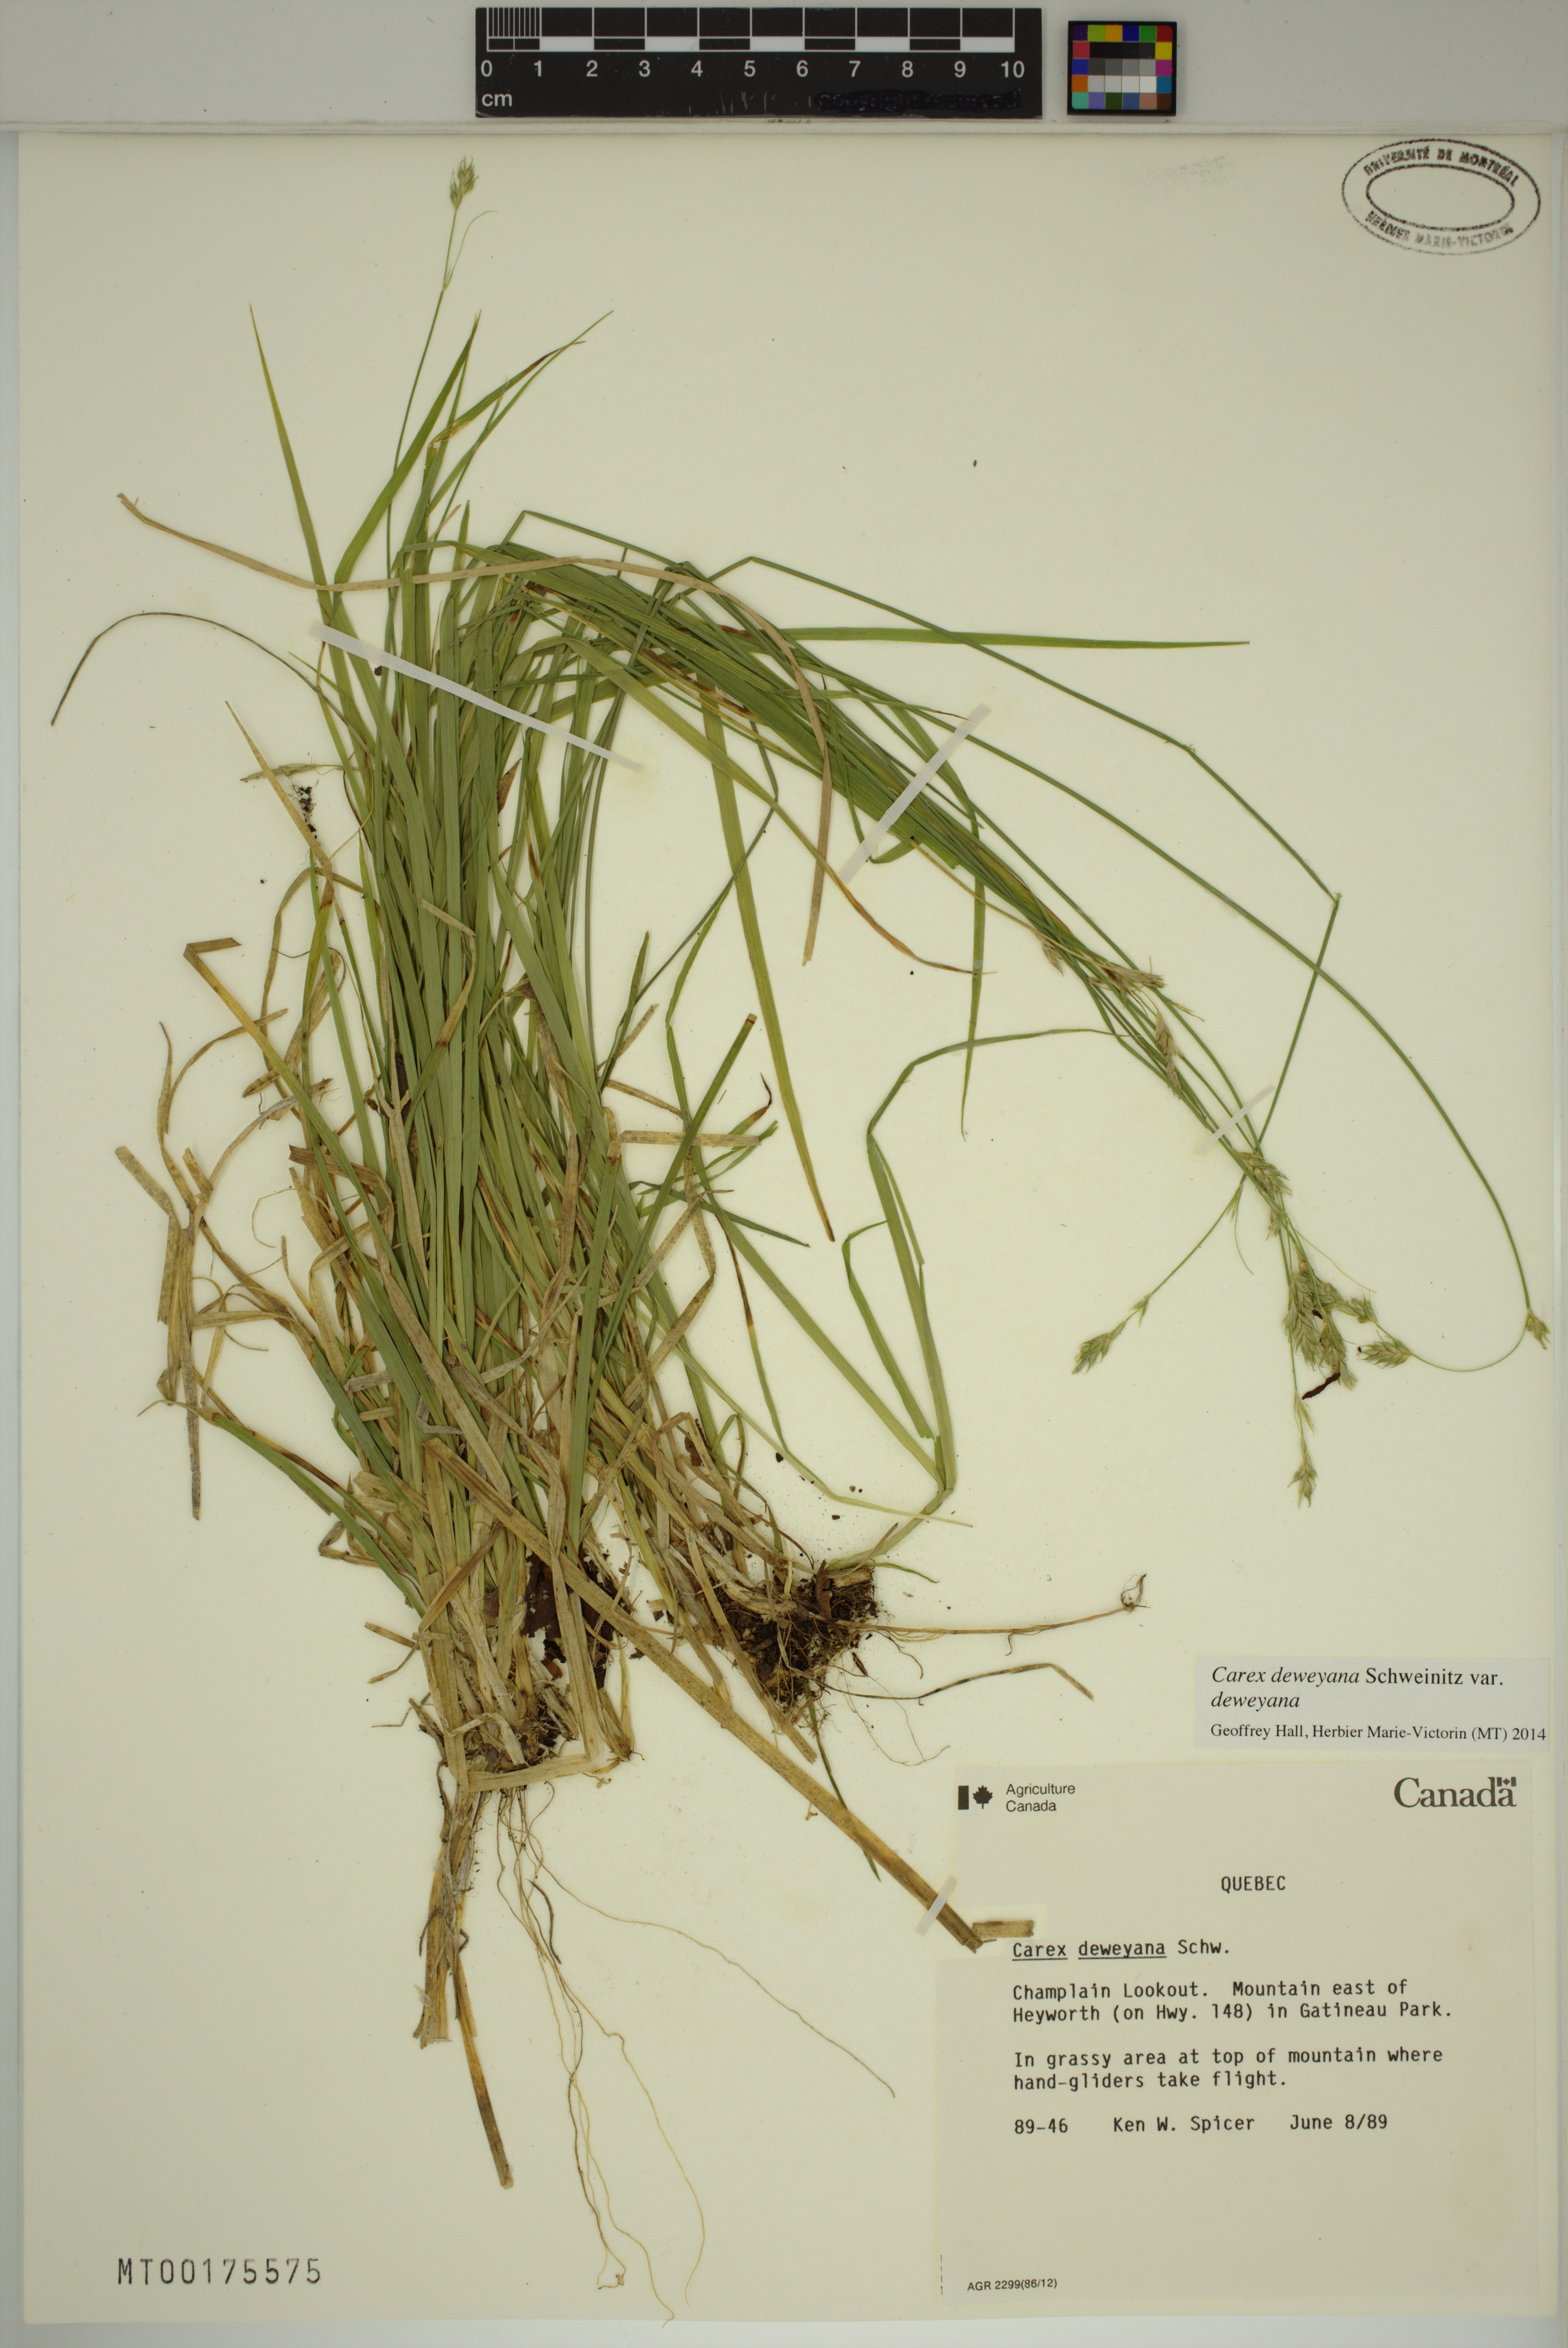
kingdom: Plantae
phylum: Tracheophyta
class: Liliopsida
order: Poales
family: Cyperaceae
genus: Carex
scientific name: Carex deweyana
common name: Dewey's sedge
